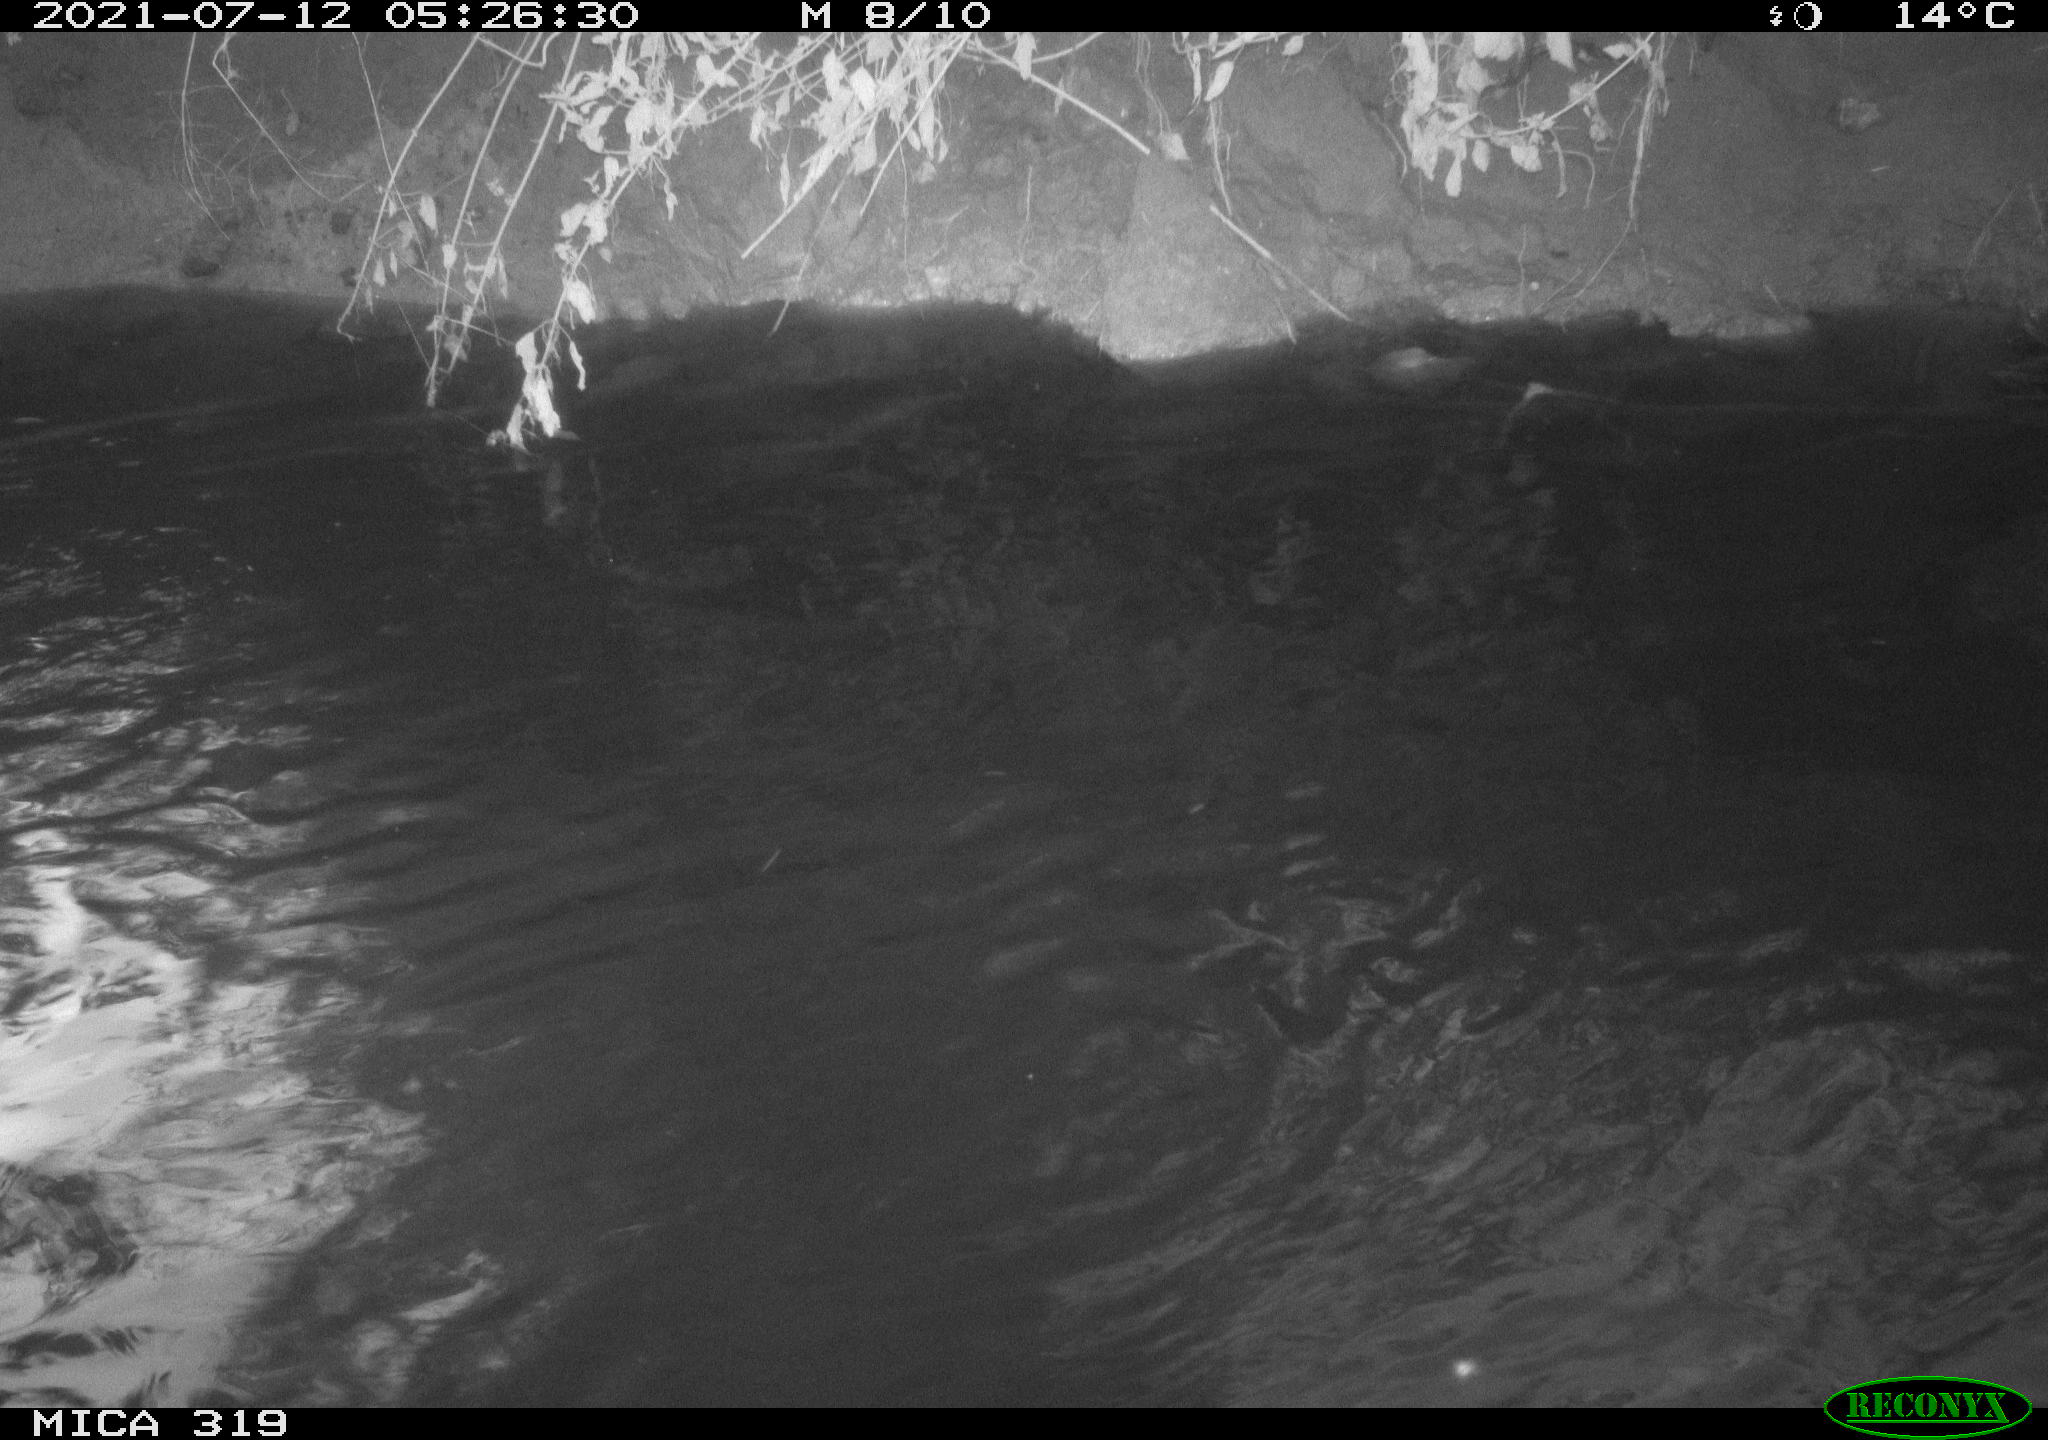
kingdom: Animalia
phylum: Chordata
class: Aves
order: Anseriformes
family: Anatidae
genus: Anas
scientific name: Anas platyrhynchos
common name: Mallard
